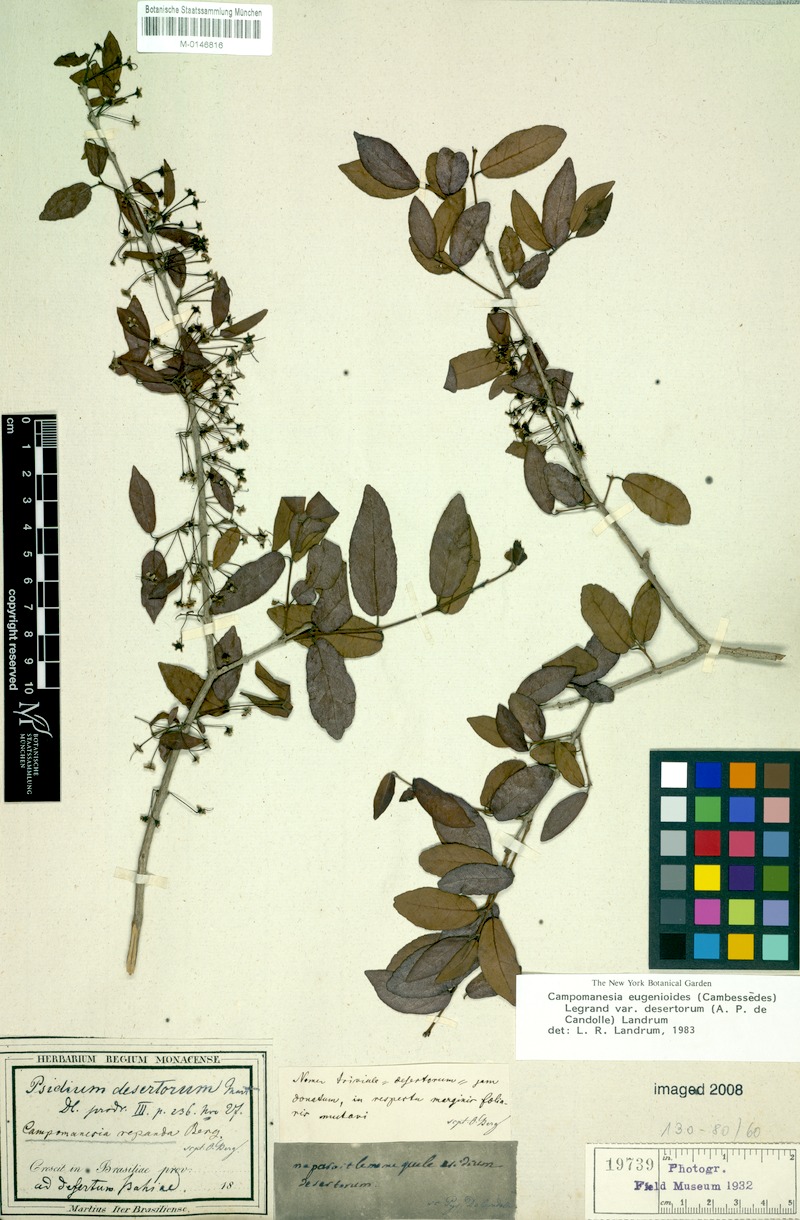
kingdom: Plantae
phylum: Tracheophyta
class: Magnoliopsida
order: Myrtales
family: Myrtaceae
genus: Campomanesia
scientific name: Campomanesia eugenioides
